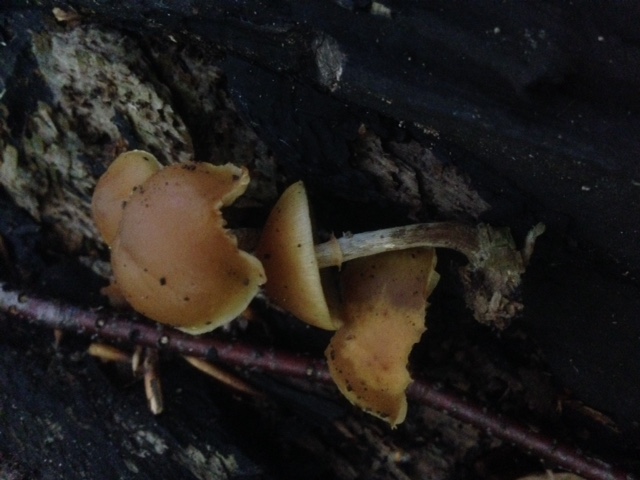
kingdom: Fungi
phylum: Basidiomycota
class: Agaricomycetes
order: Agaricales
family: Hymenogastraceae
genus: Galerina
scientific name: Galerina marginata
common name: randbæltet hjelmhat
